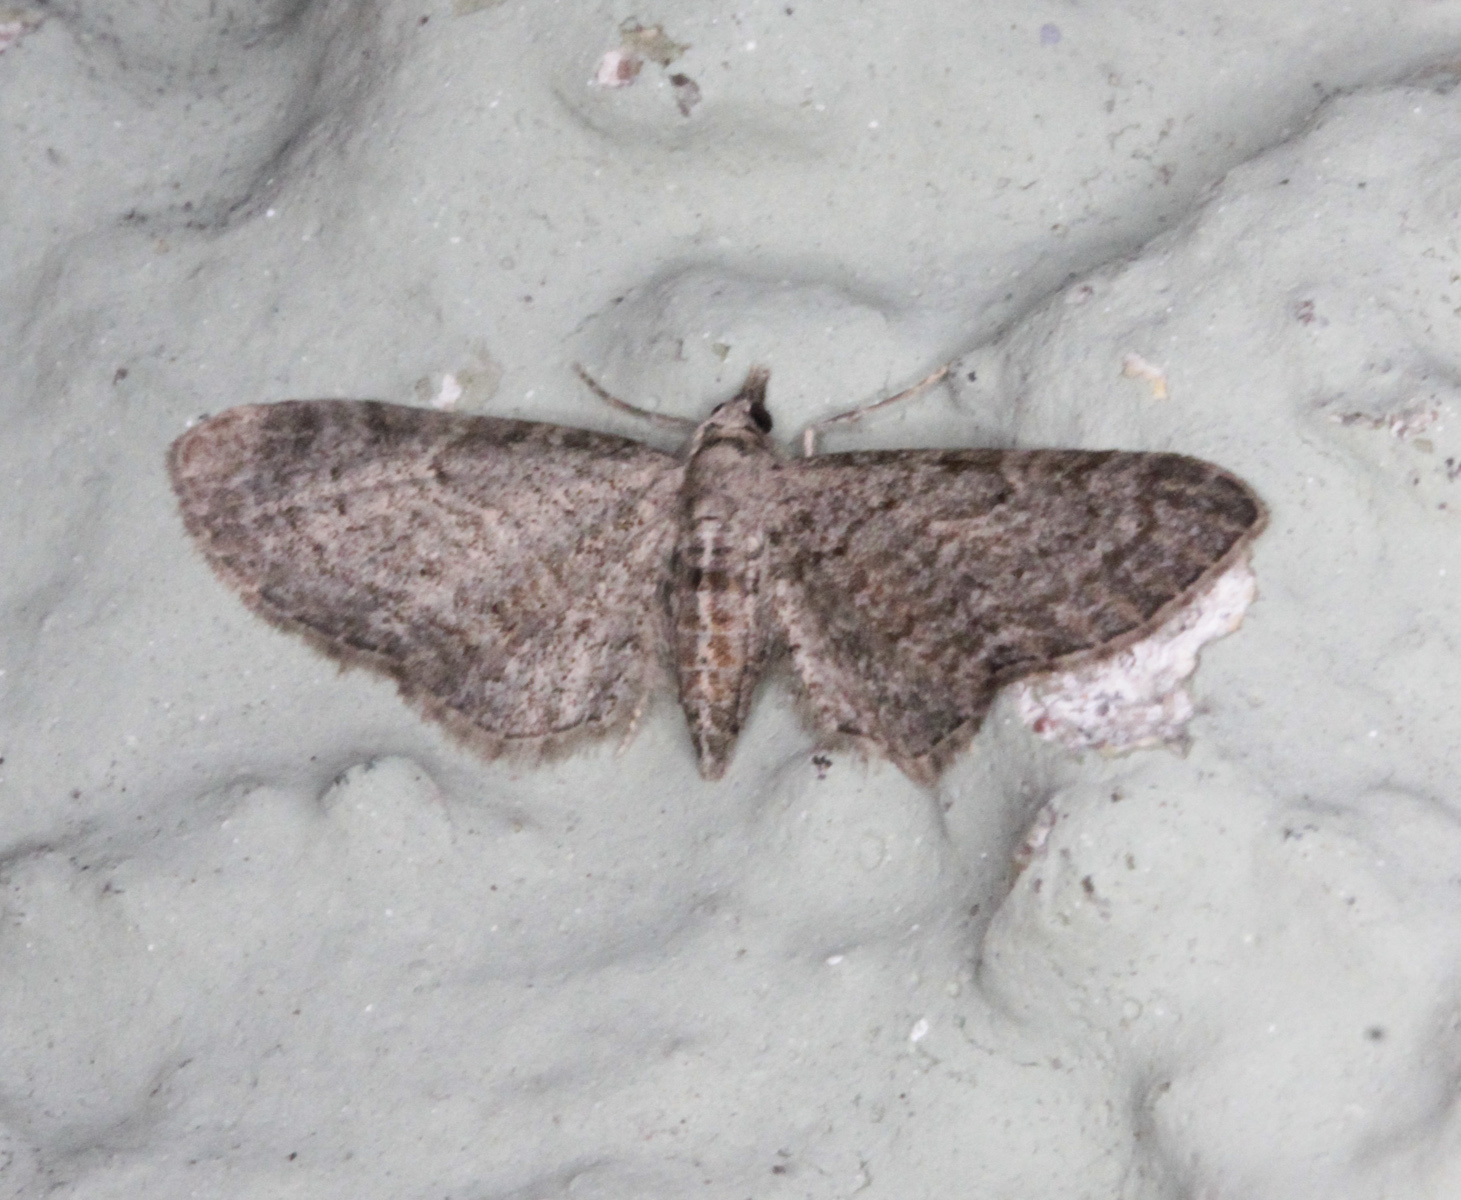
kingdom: Animalia
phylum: Arthropoda
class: Insecta
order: Lepidoptera
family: Geometridae
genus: Pasiphila
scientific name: Pasiphila debiliata
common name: Bilberry pug
